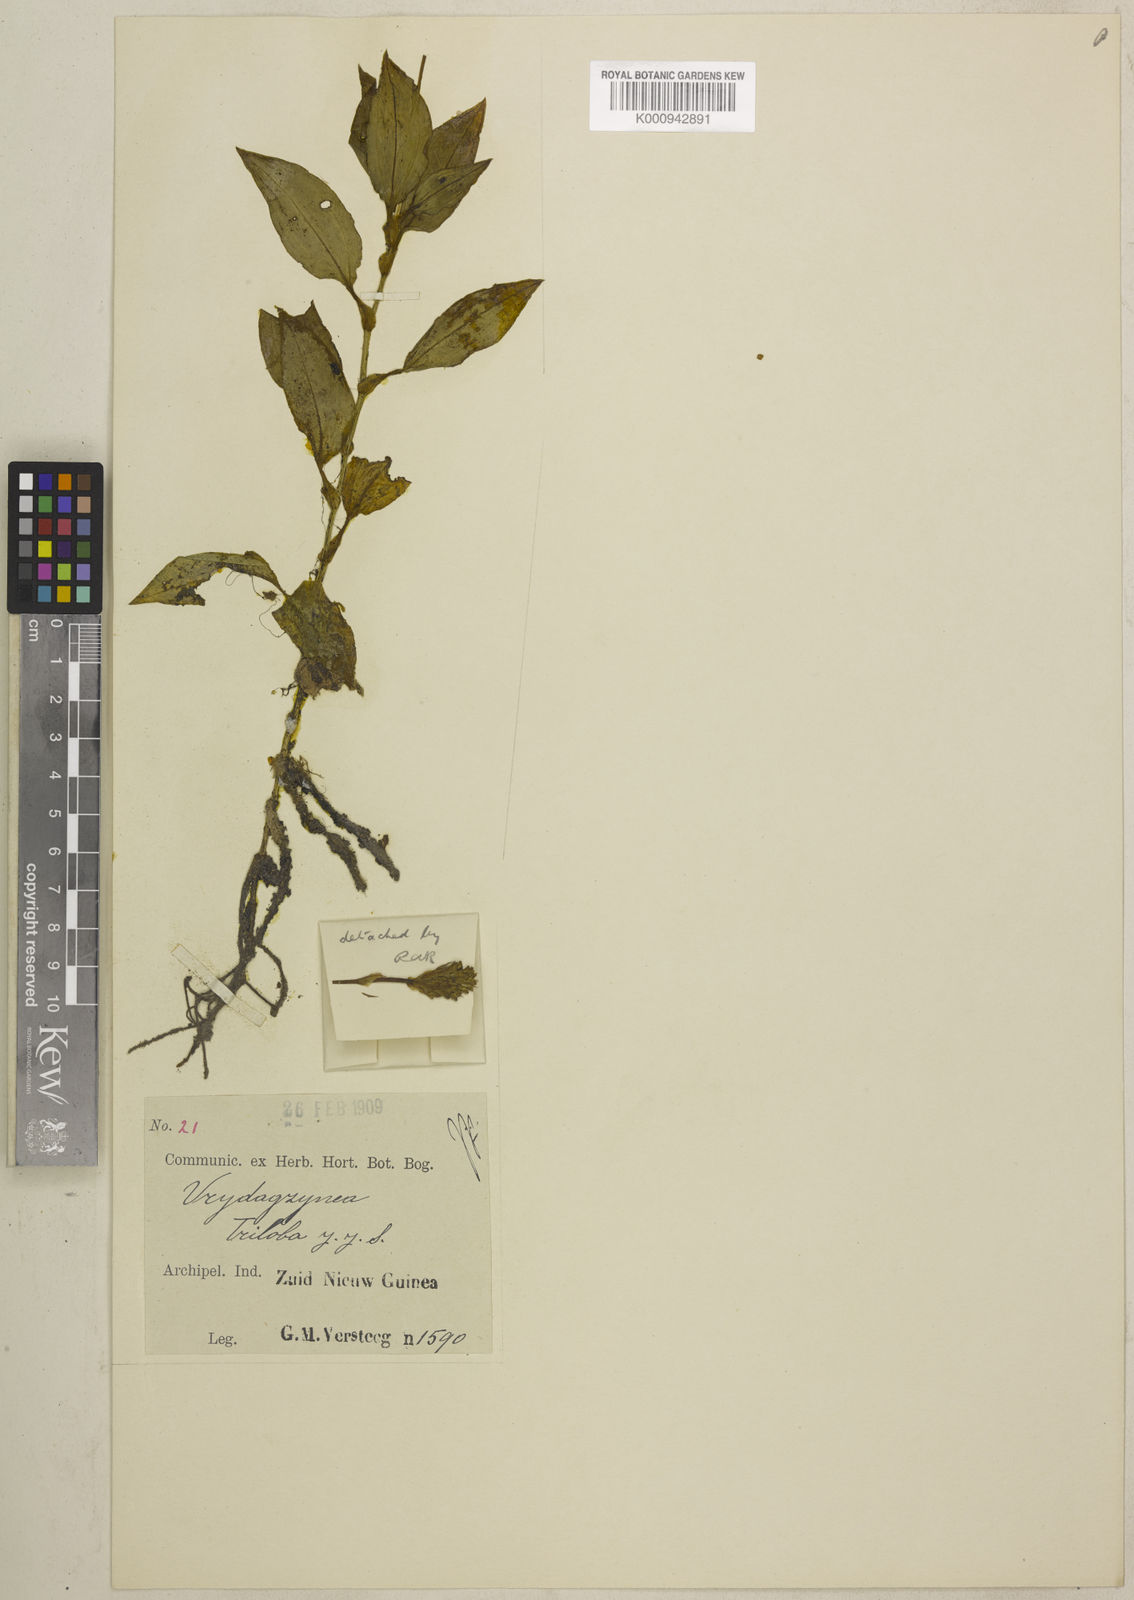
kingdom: Plantae
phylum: Tracheophyta
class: Liliopsida
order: Asparagales
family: Orchidaceae
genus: Vrydagzynea
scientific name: Vrydagzynea schumanniana
